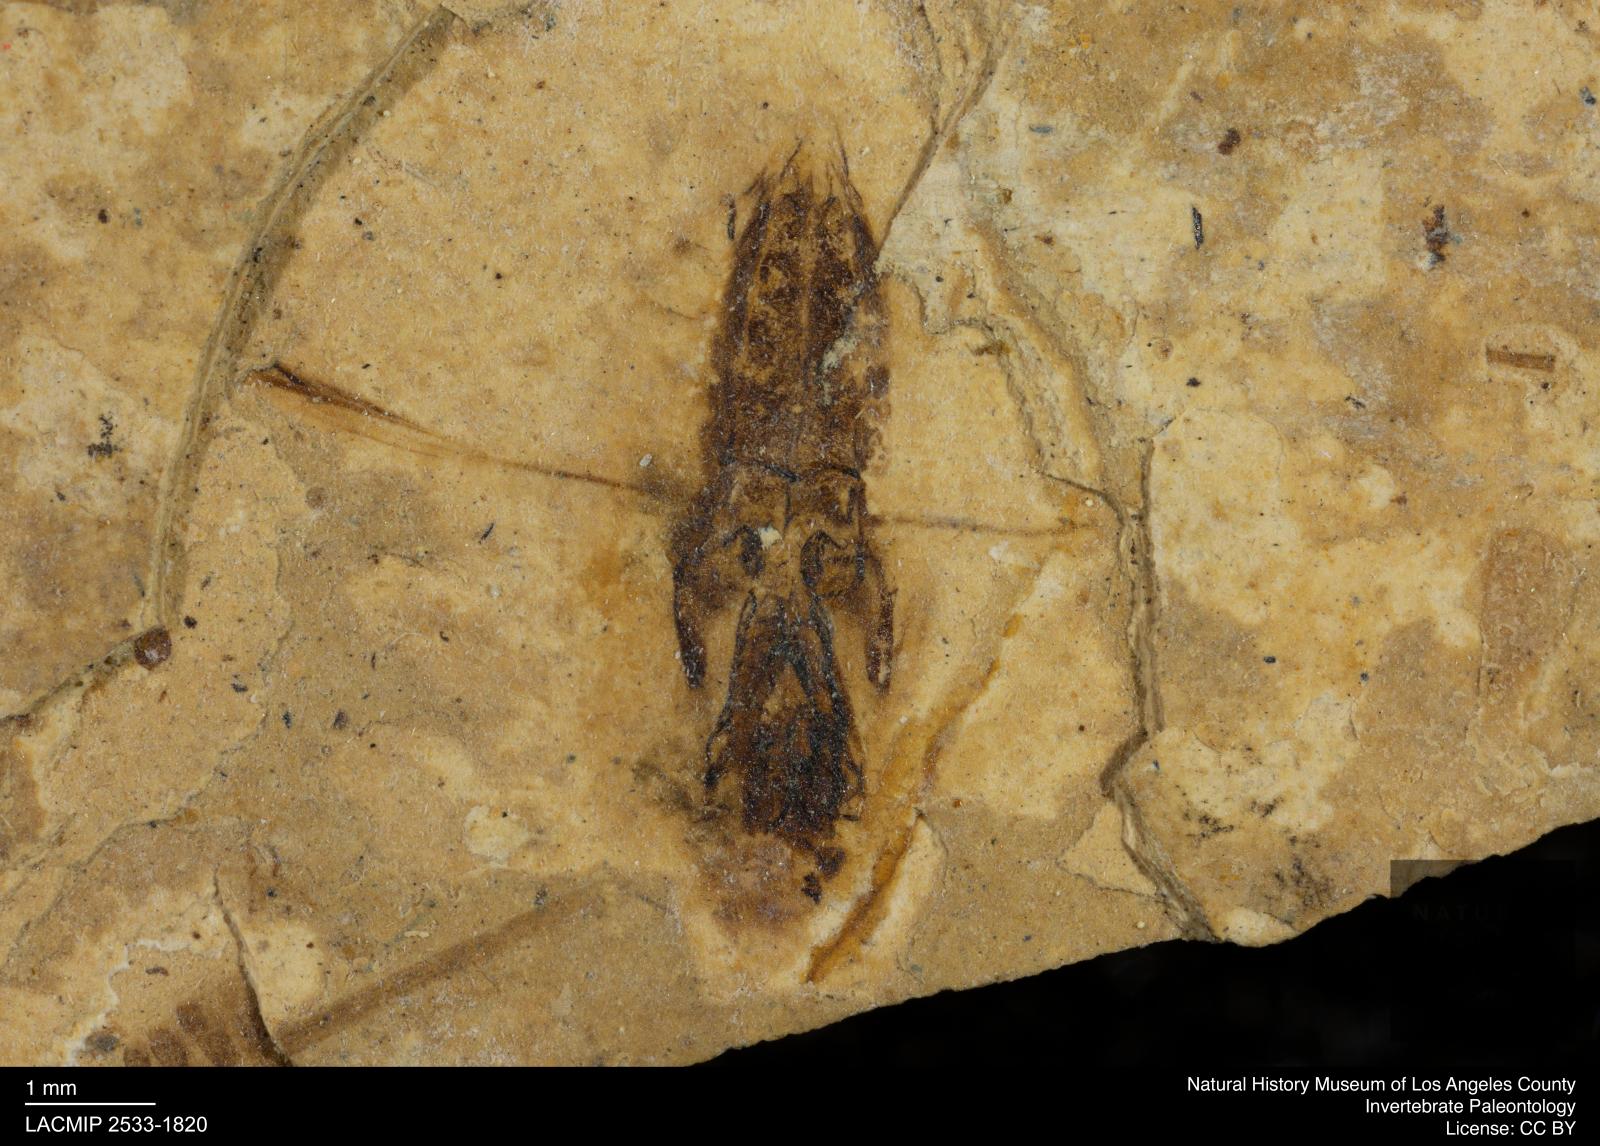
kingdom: Animalia
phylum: Arthropoda
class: Insecta
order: Hemiptera
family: Notonectidae
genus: Notonecta
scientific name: Notonecta
